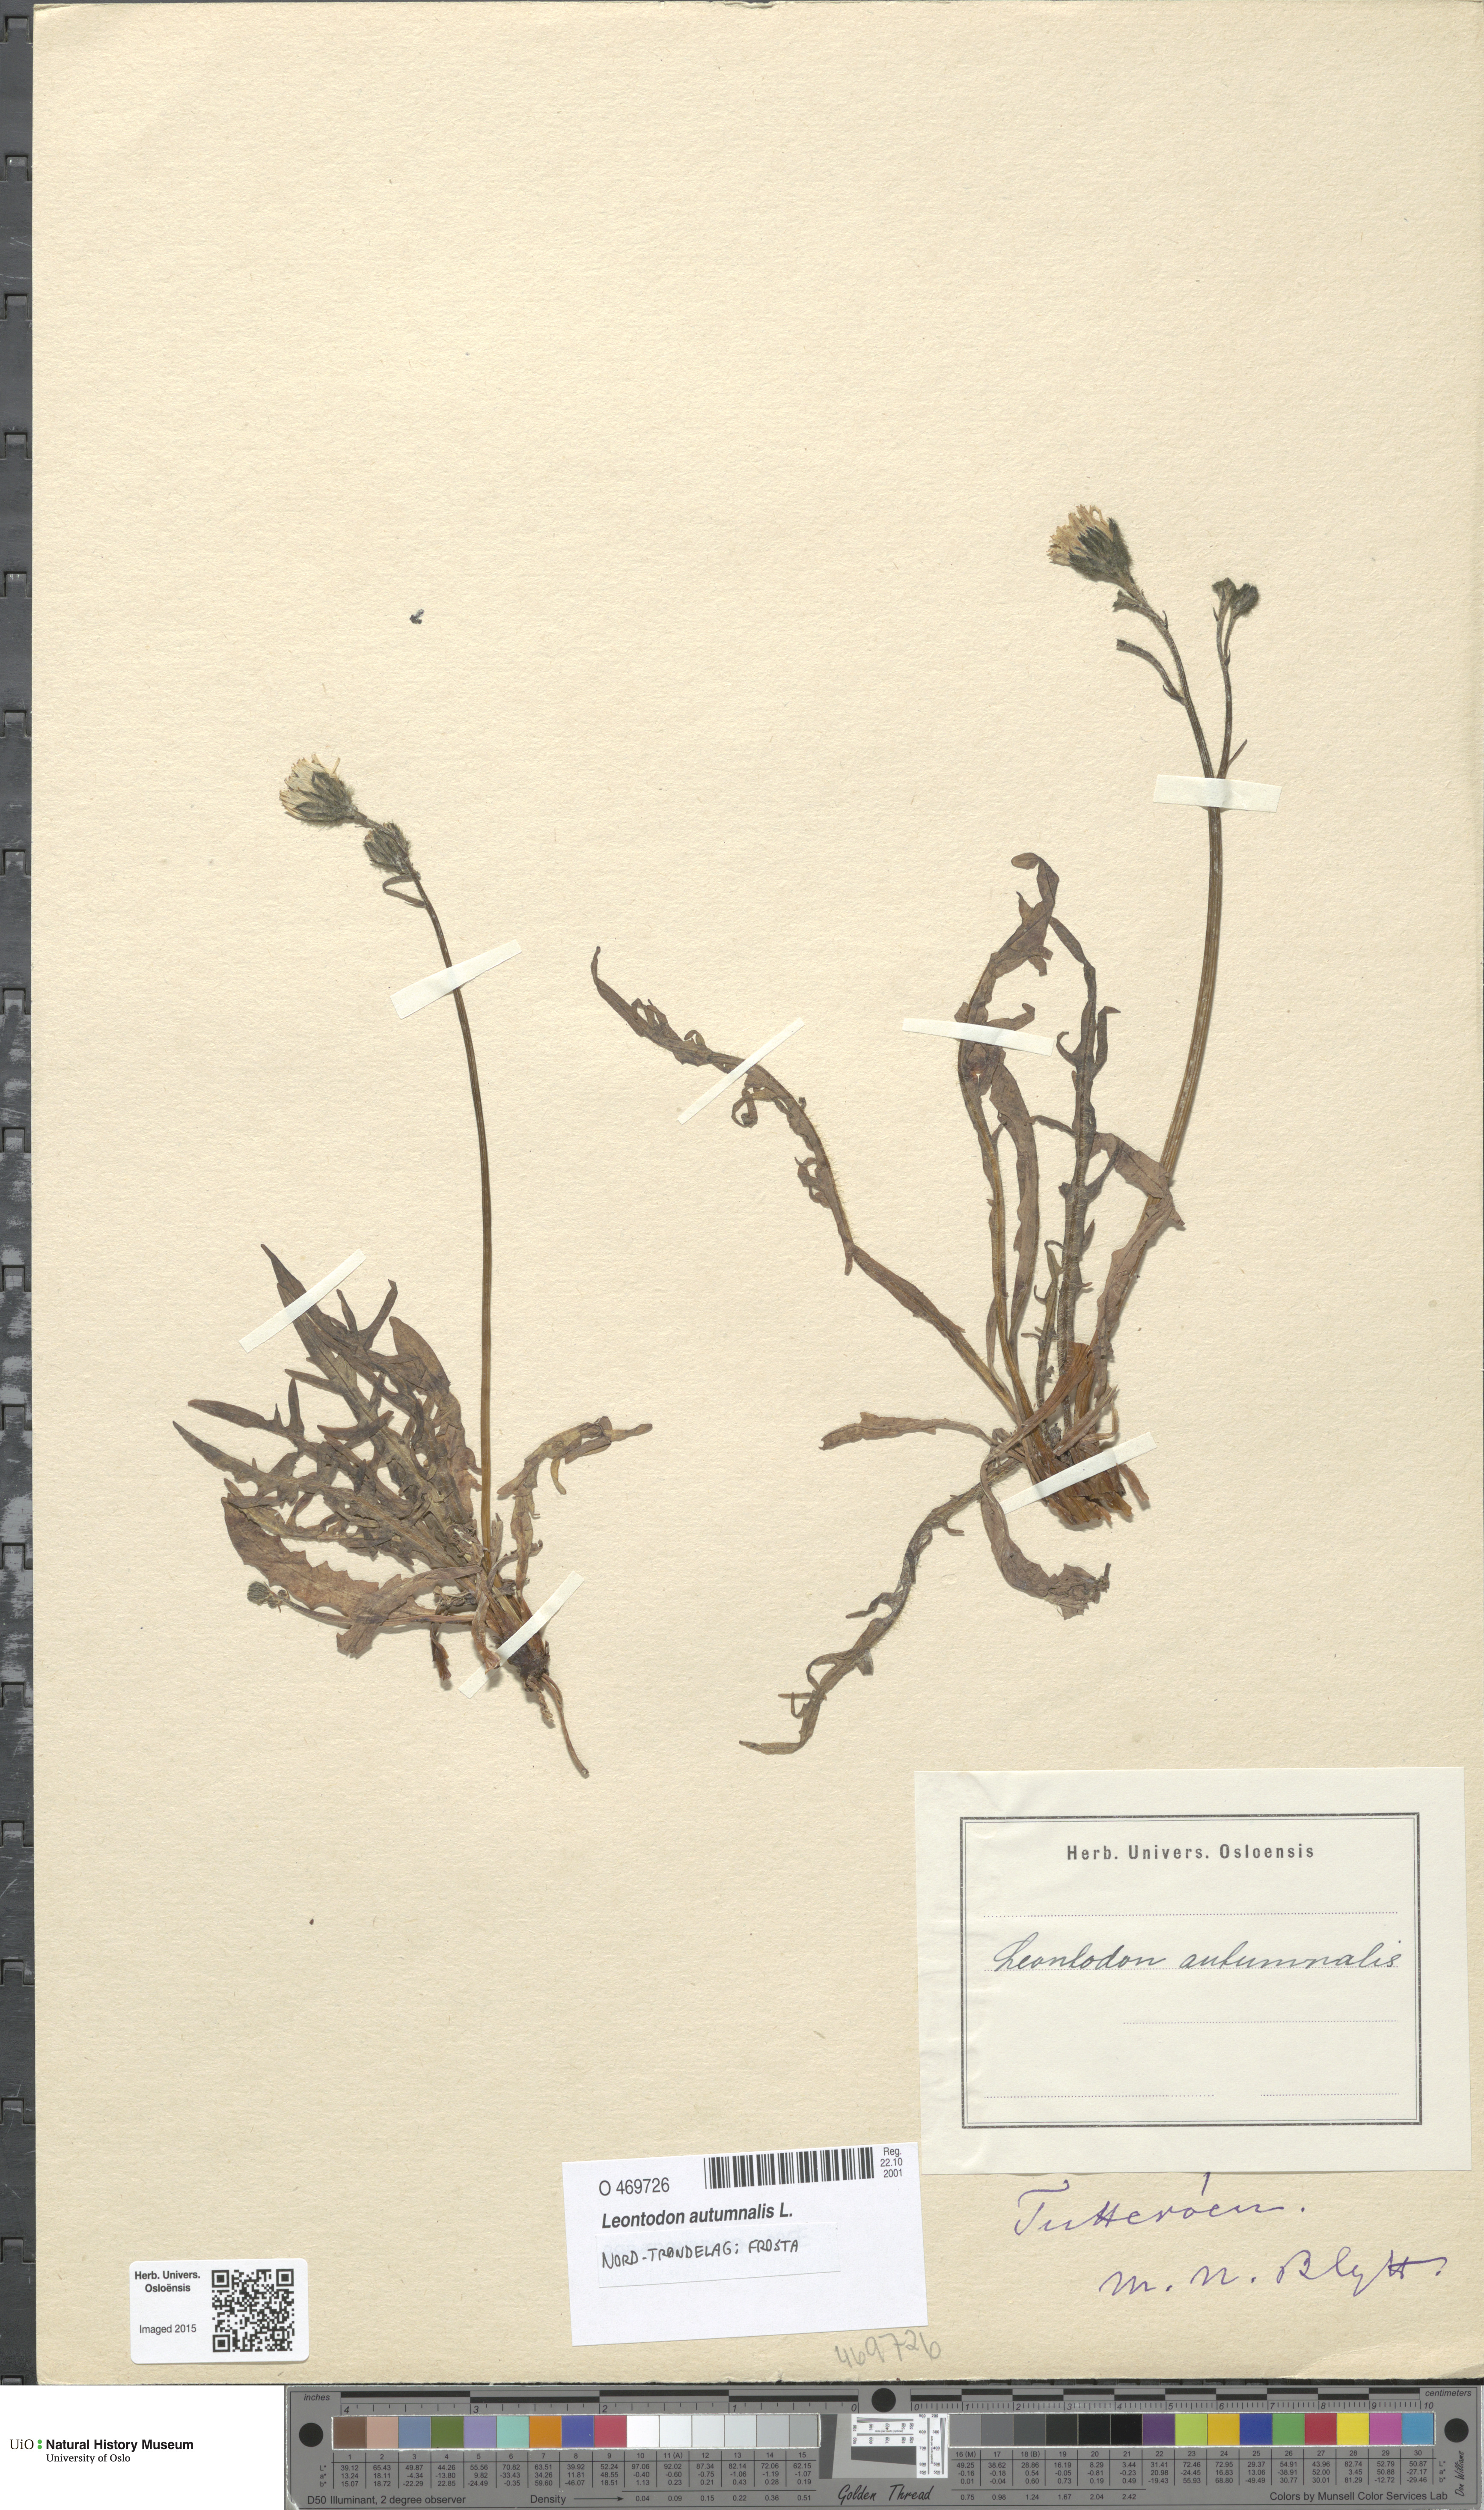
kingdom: Plantae
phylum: Tracheophyta
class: Magnoliopsida
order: Asterales
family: Asteraceae
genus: Scorzoneroides
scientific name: Scorzoneroides autumnalis
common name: Autumn hawkbit
